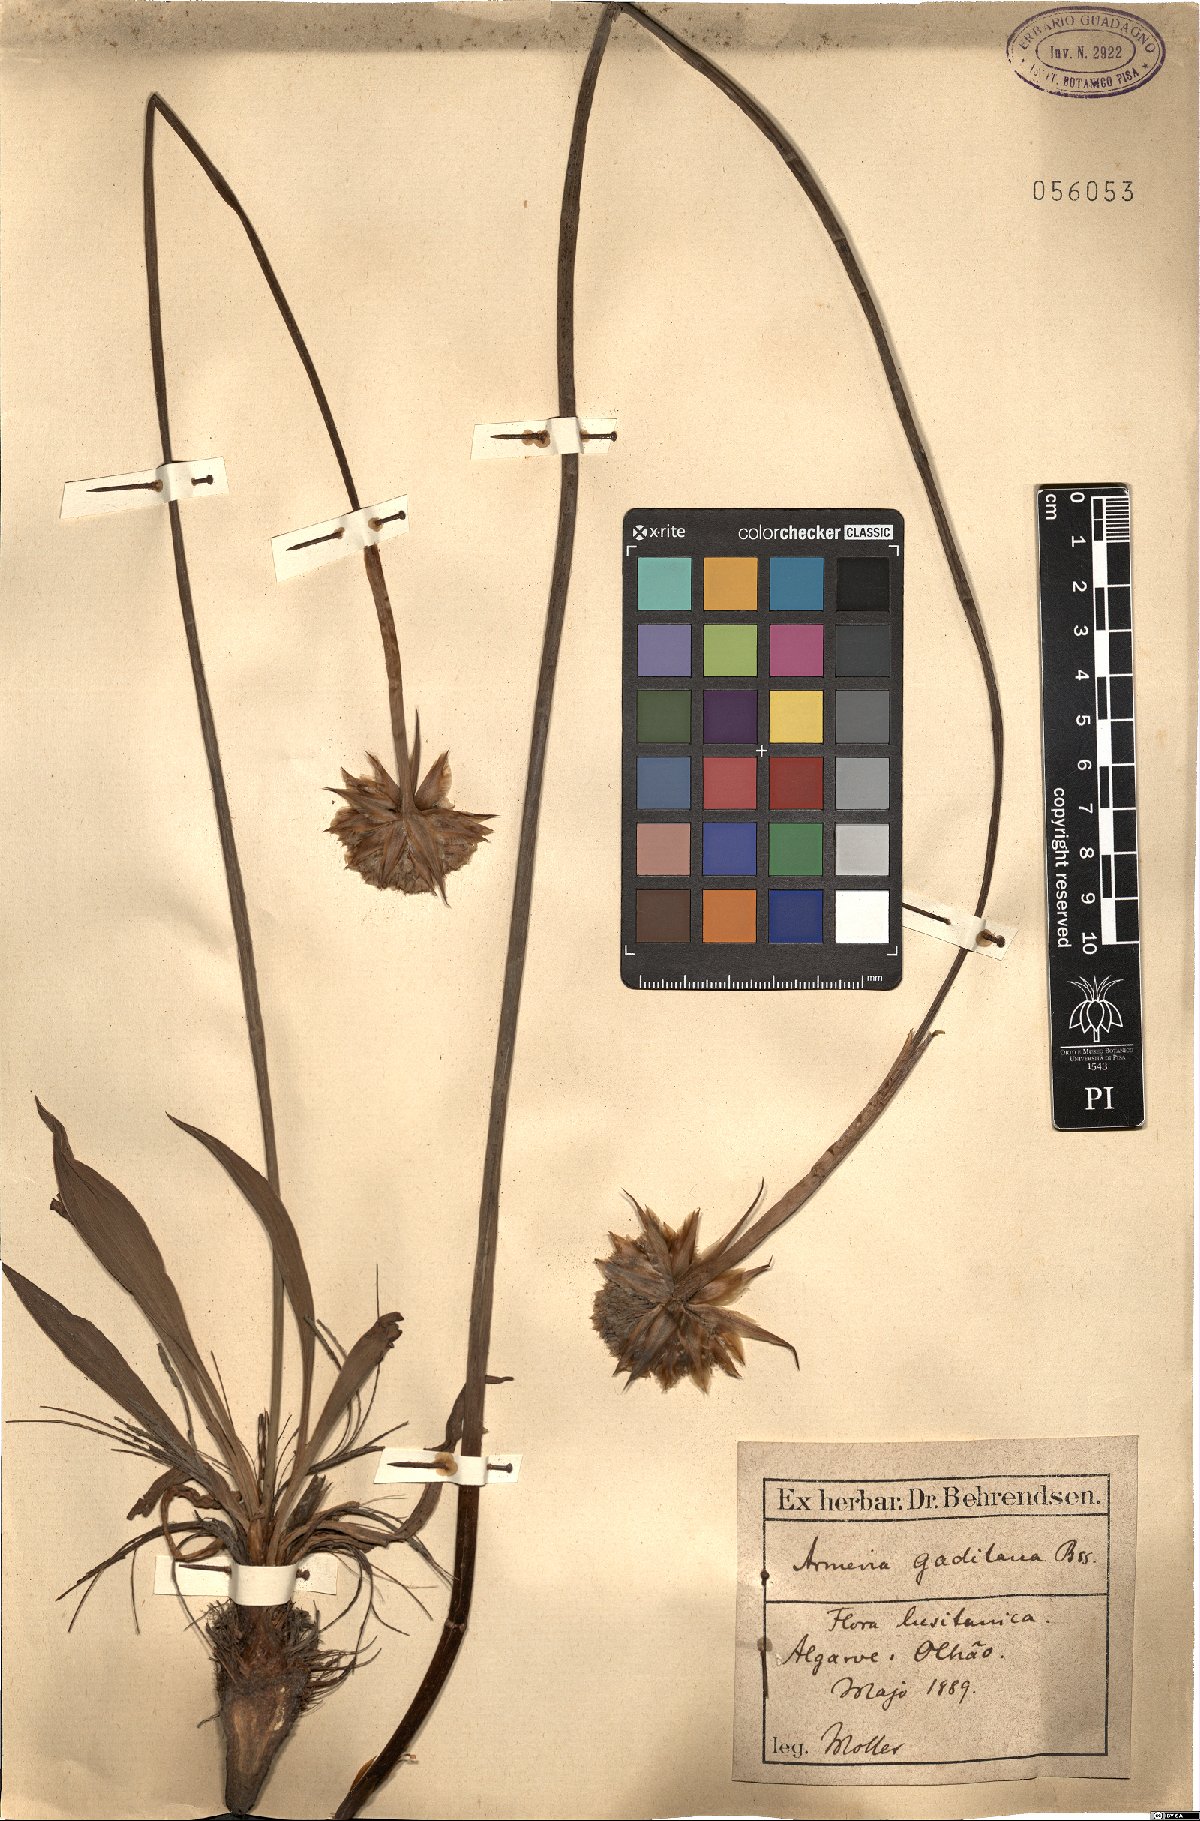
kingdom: Plantae
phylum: Tracheophyta
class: Magnoliopsida
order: Caryophyllales
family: Plumbaginaceae
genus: Armeria
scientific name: Armeria gaditana
